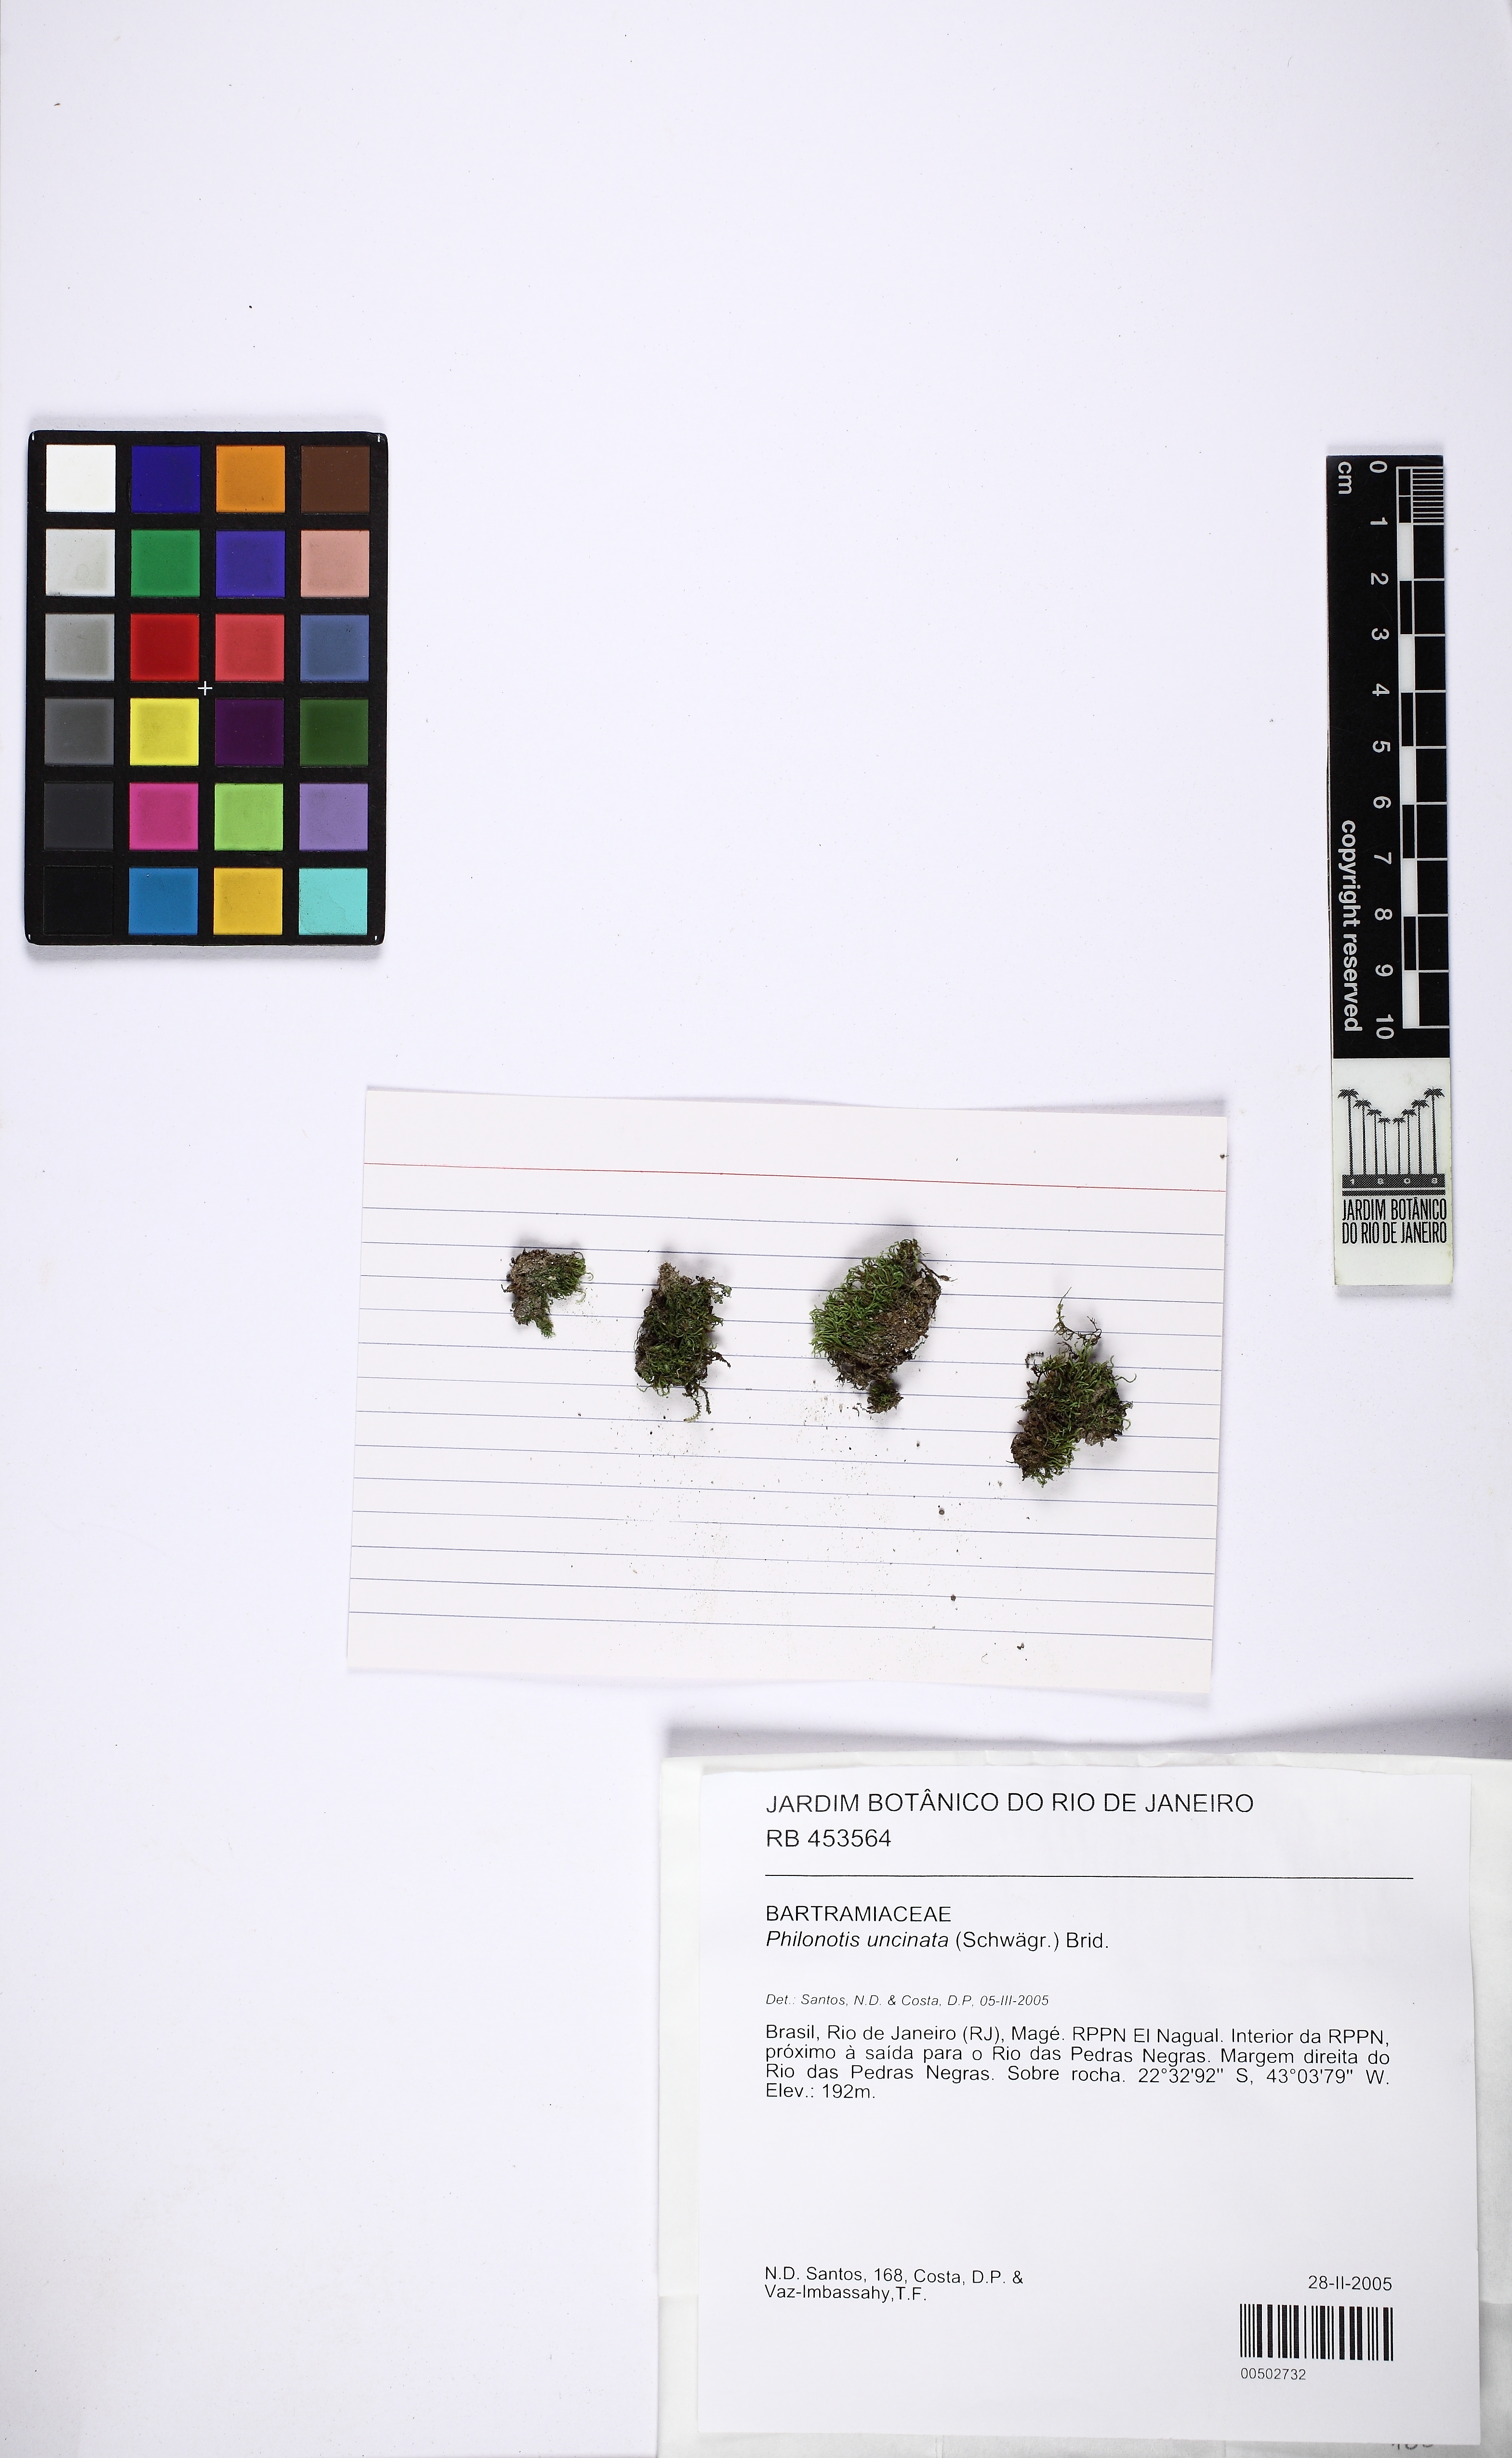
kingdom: Plantae
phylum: Bryophyta
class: Bryopsida
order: Bartramiales
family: Bartramiaceae
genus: Philonotis
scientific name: Philonotis uncinata
